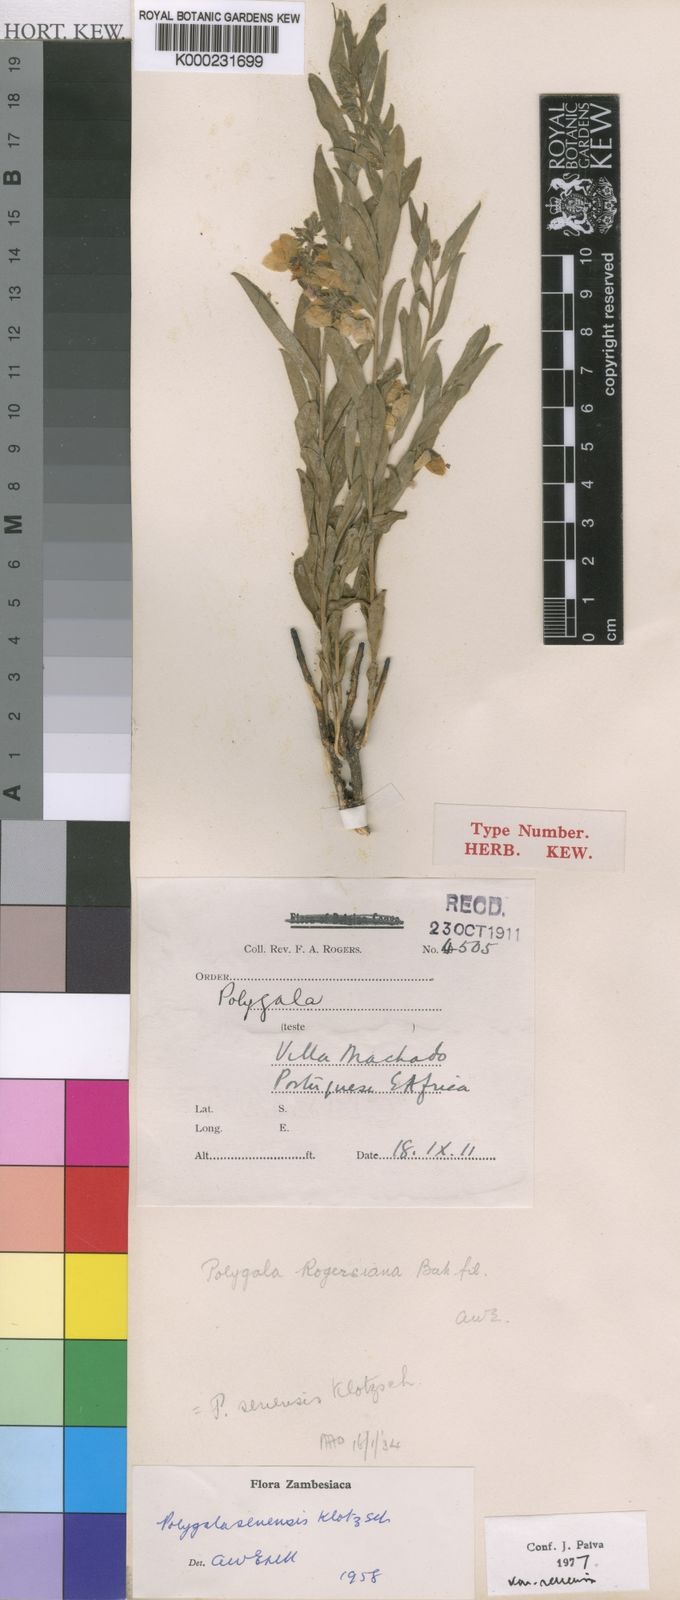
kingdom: Plantae
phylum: Tracheophyta
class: Magnoliopsida
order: Fabales
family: Polygalaceae
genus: Polygala
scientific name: Polygala
